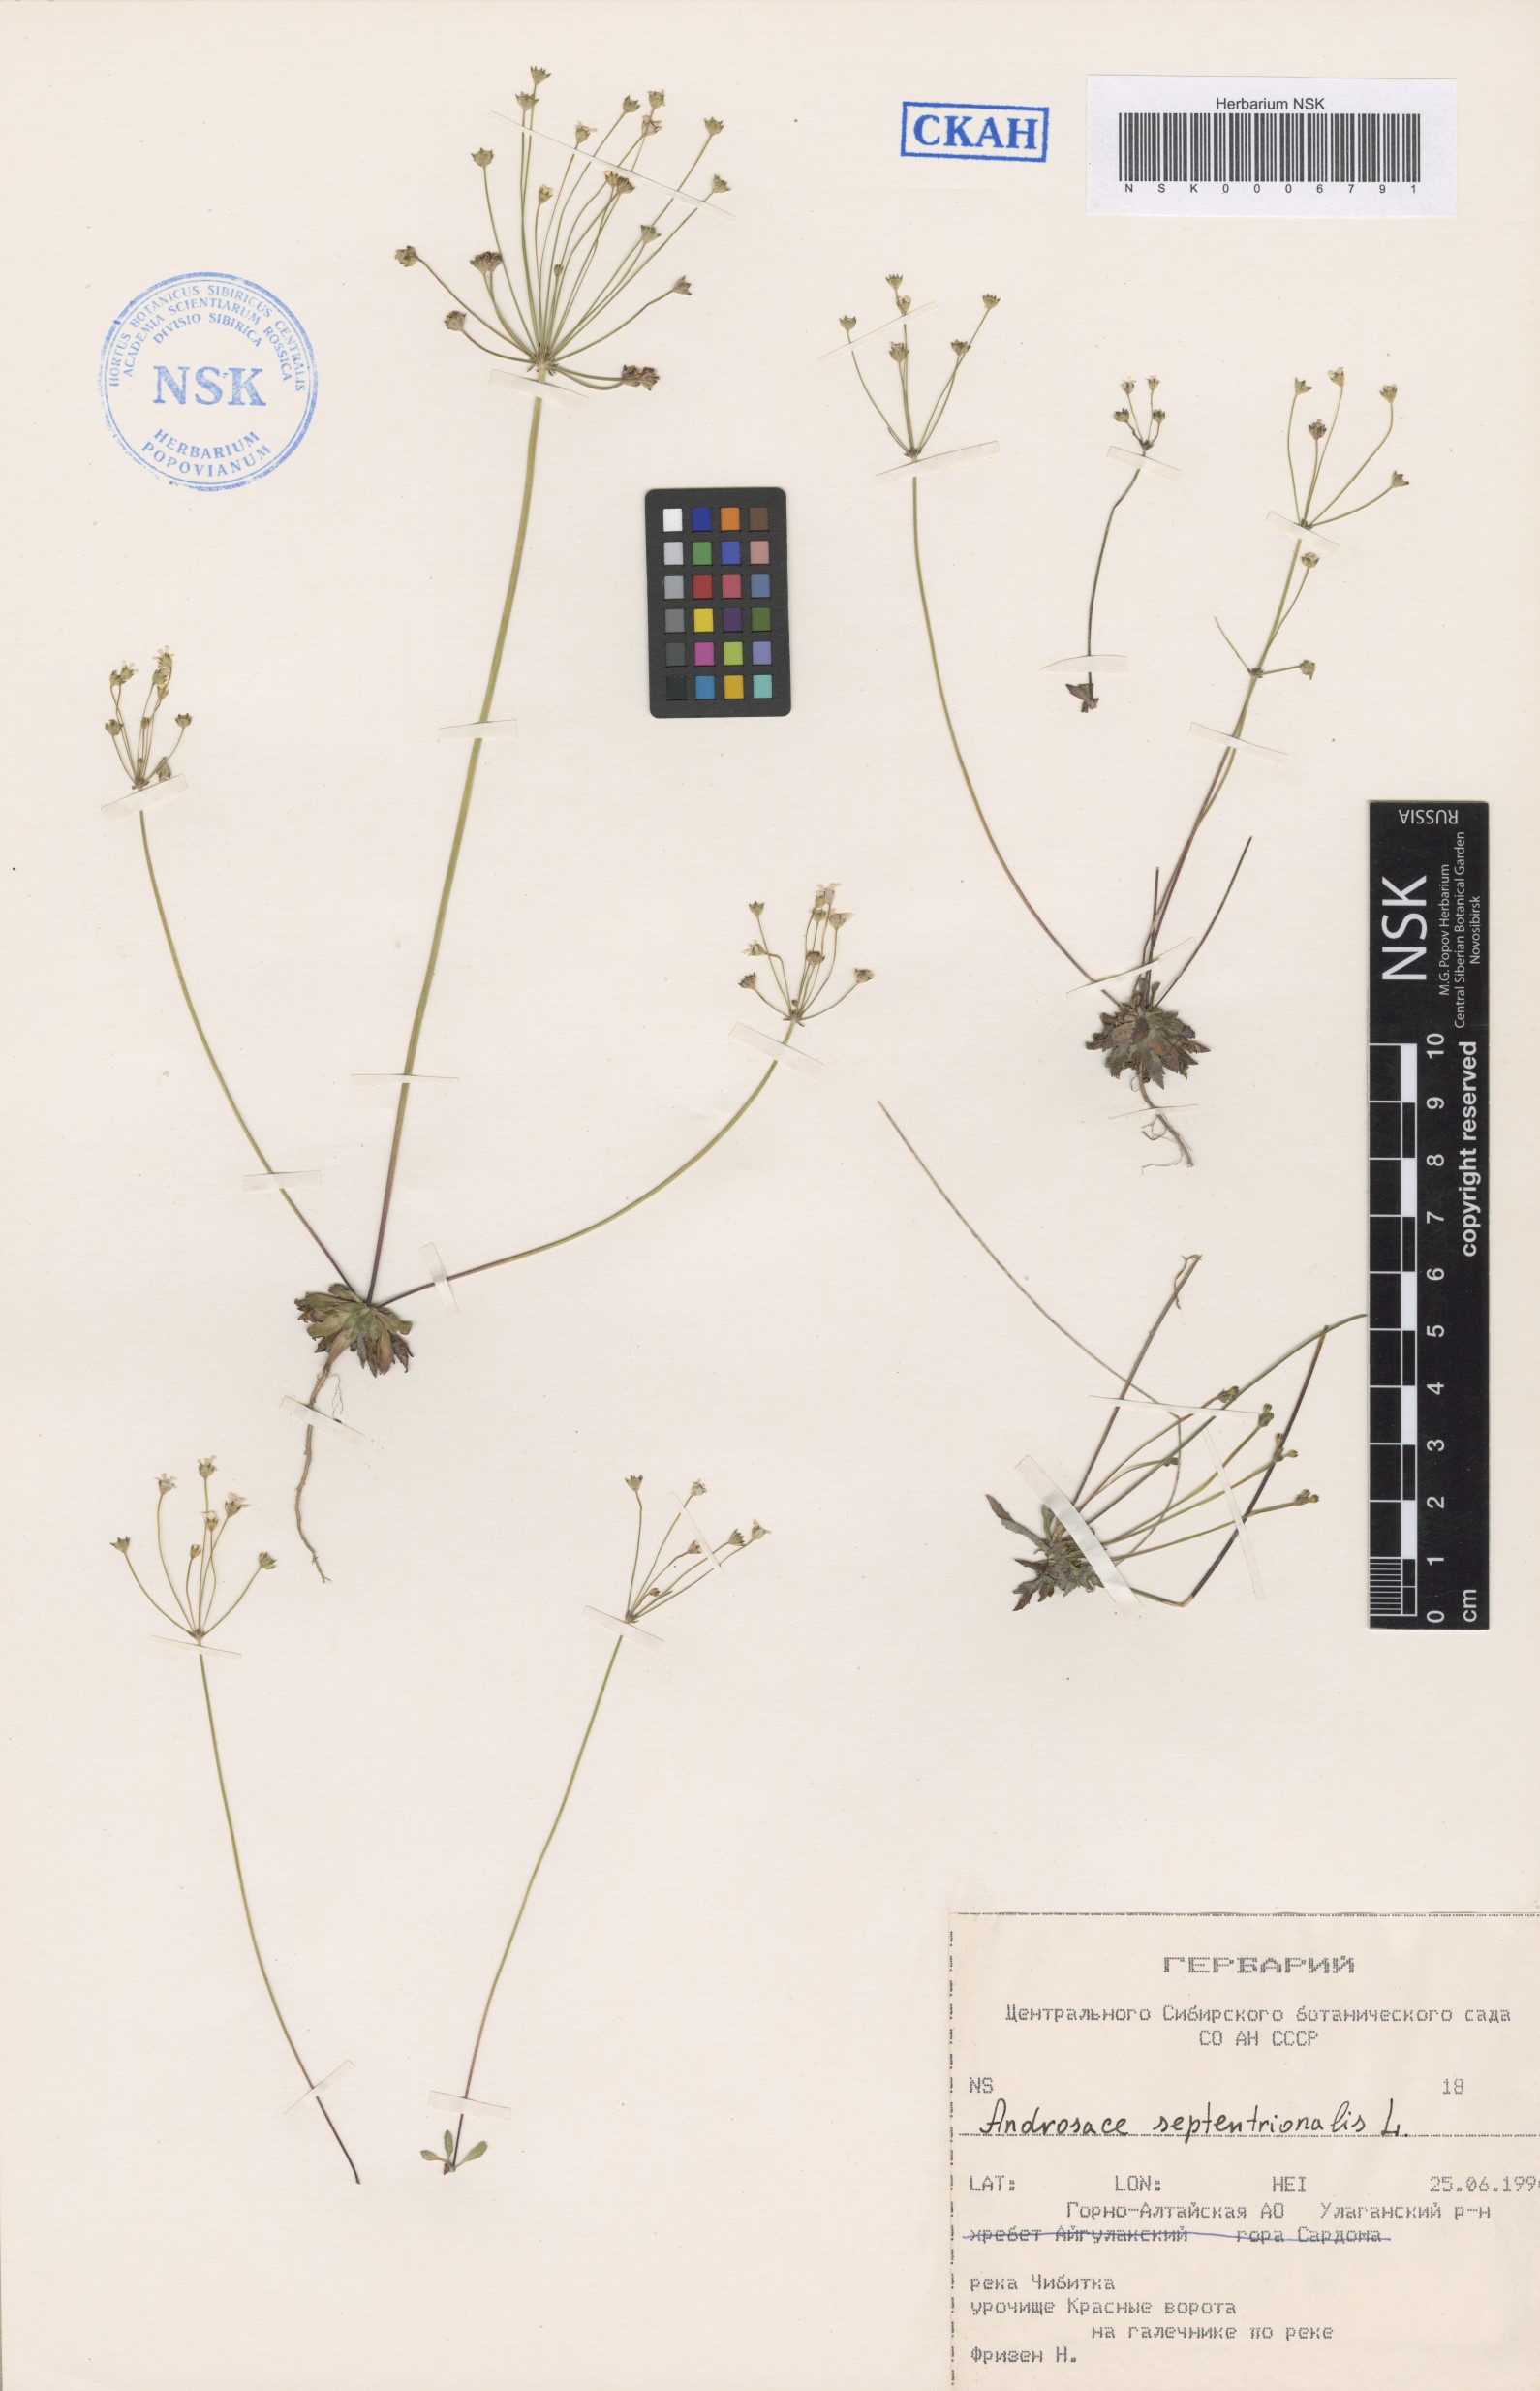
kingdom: Plantae
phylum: Tracheophyta
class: Magnoliopsida
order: Ericales
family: Primulaceae
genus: Androsace
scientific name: Androsace septentrionalis
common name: Hairy northern fairy-candelabra
